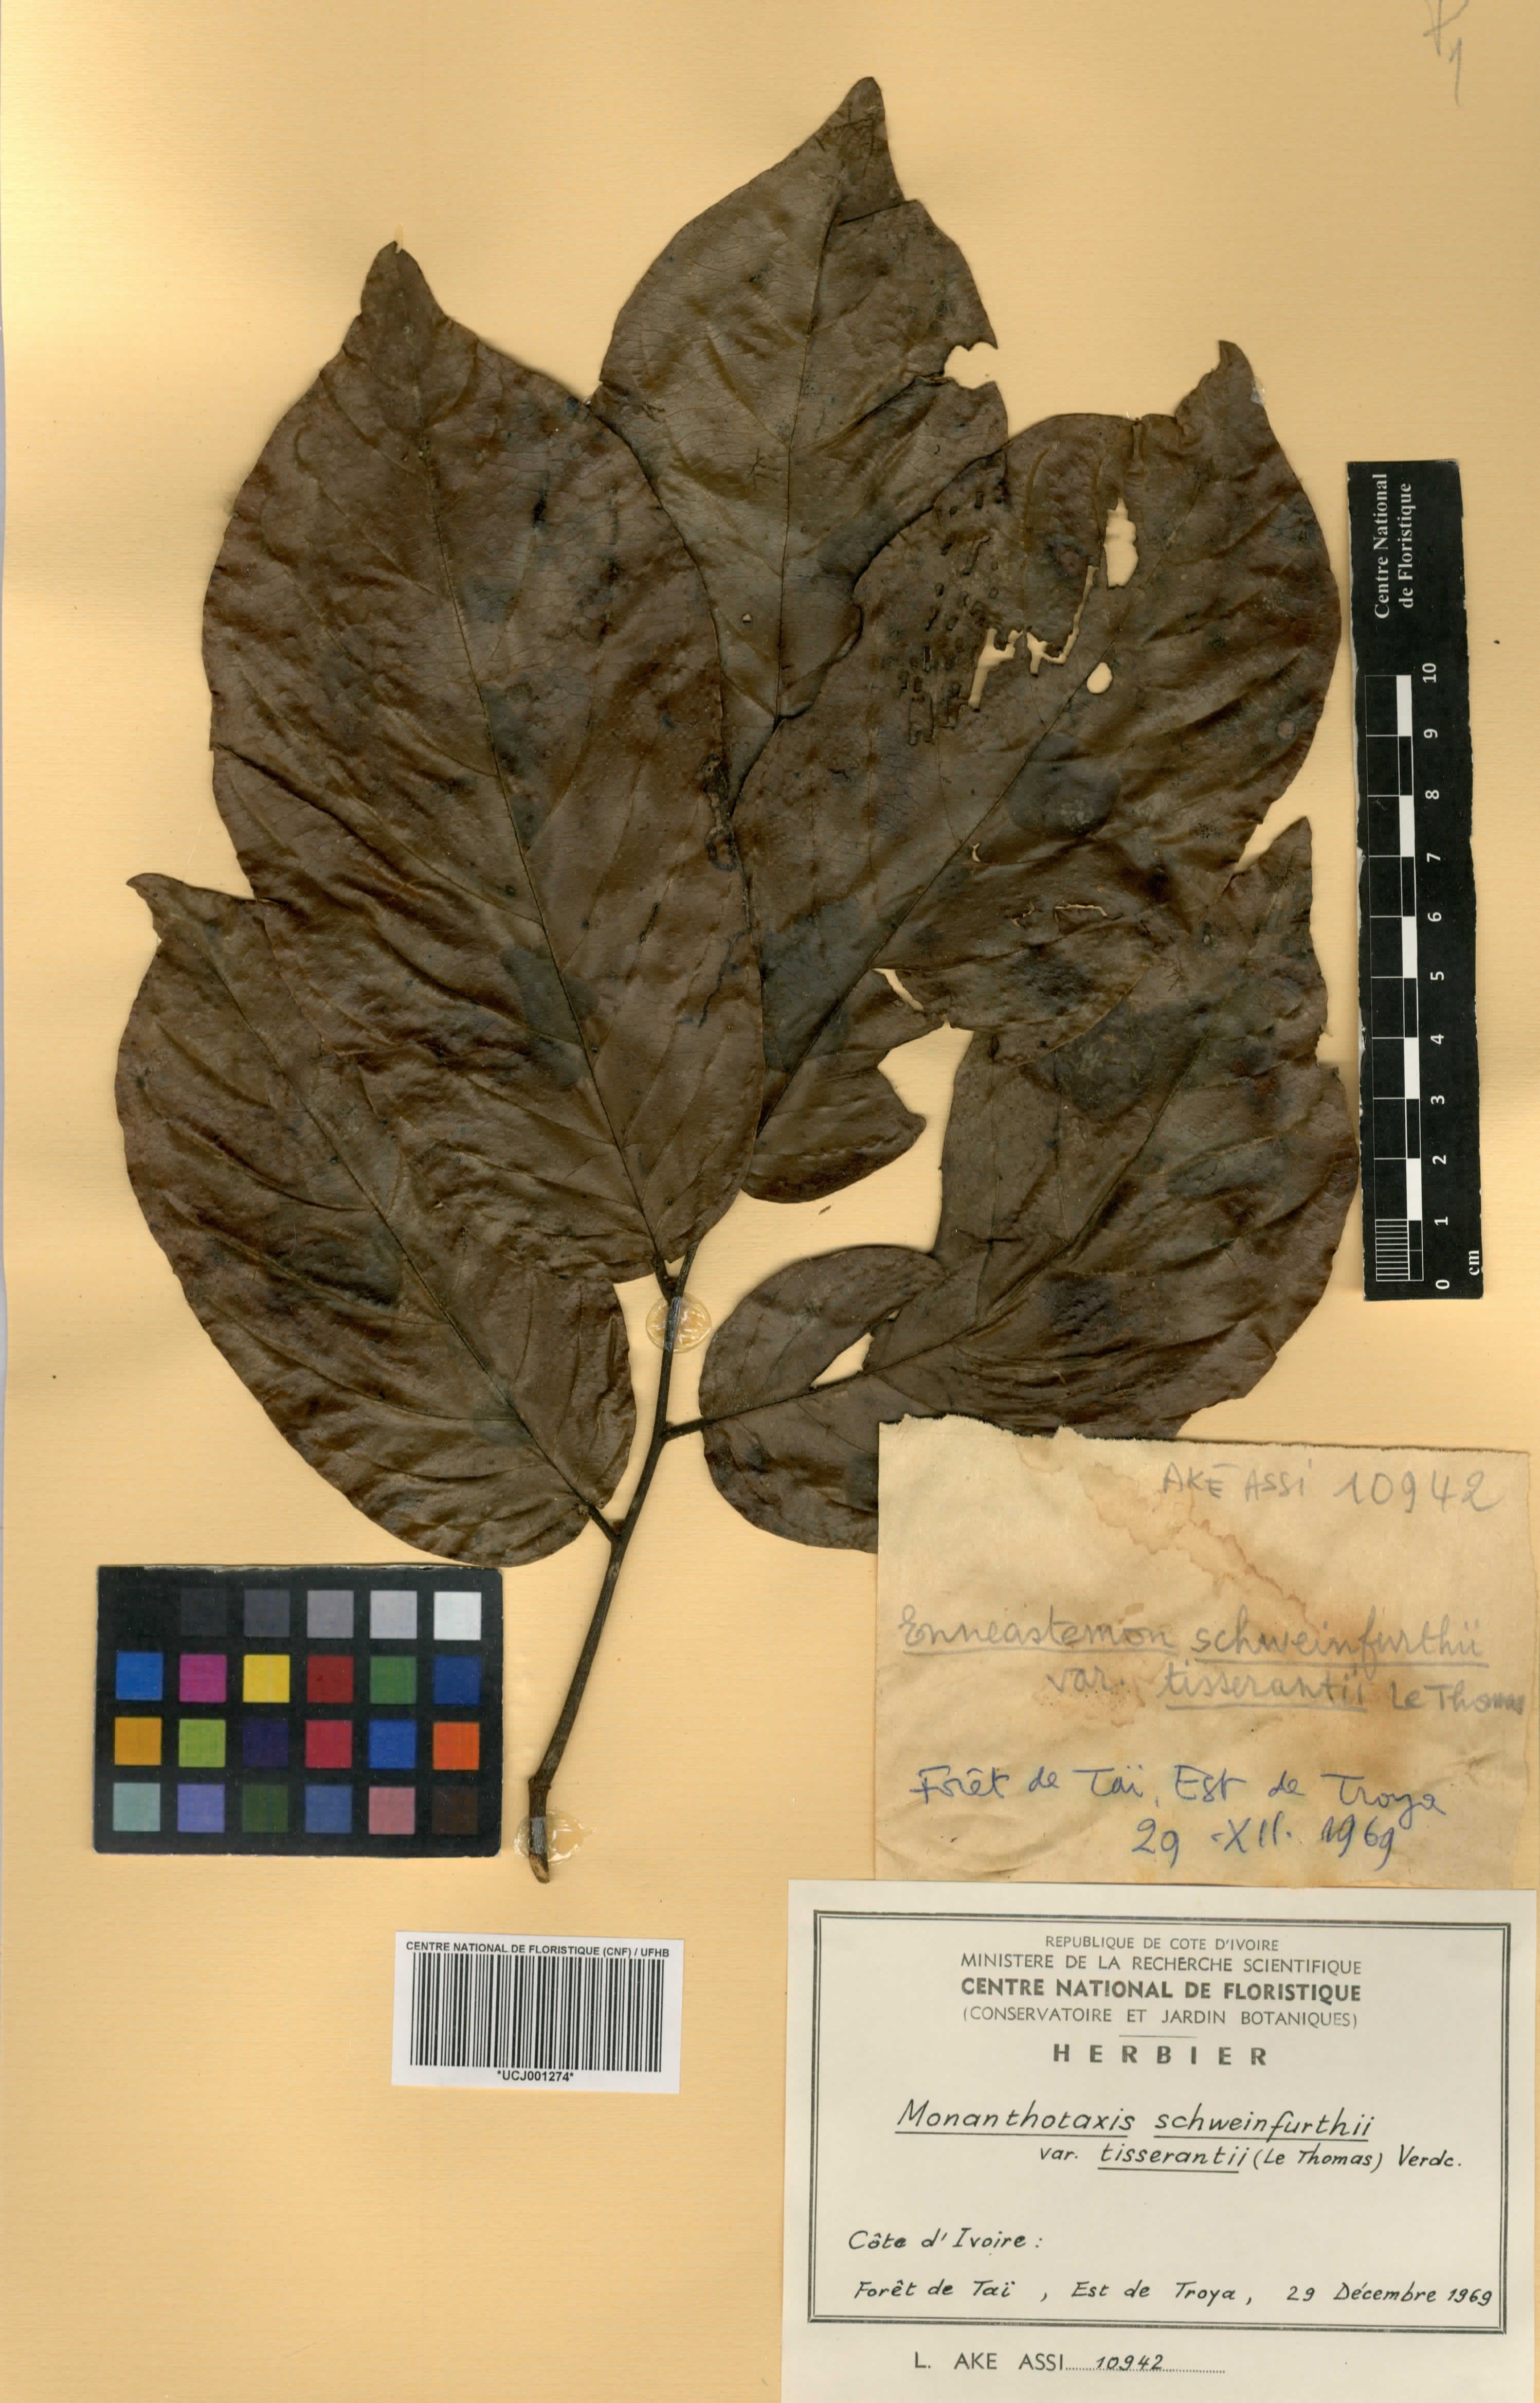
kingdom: Plantae
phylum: Tracheophyta
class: Magnoliopsida
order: Magnoliales
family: Annonaceae
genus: Monanthotaxis
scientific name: Monanthotaxis schweinfurthii
